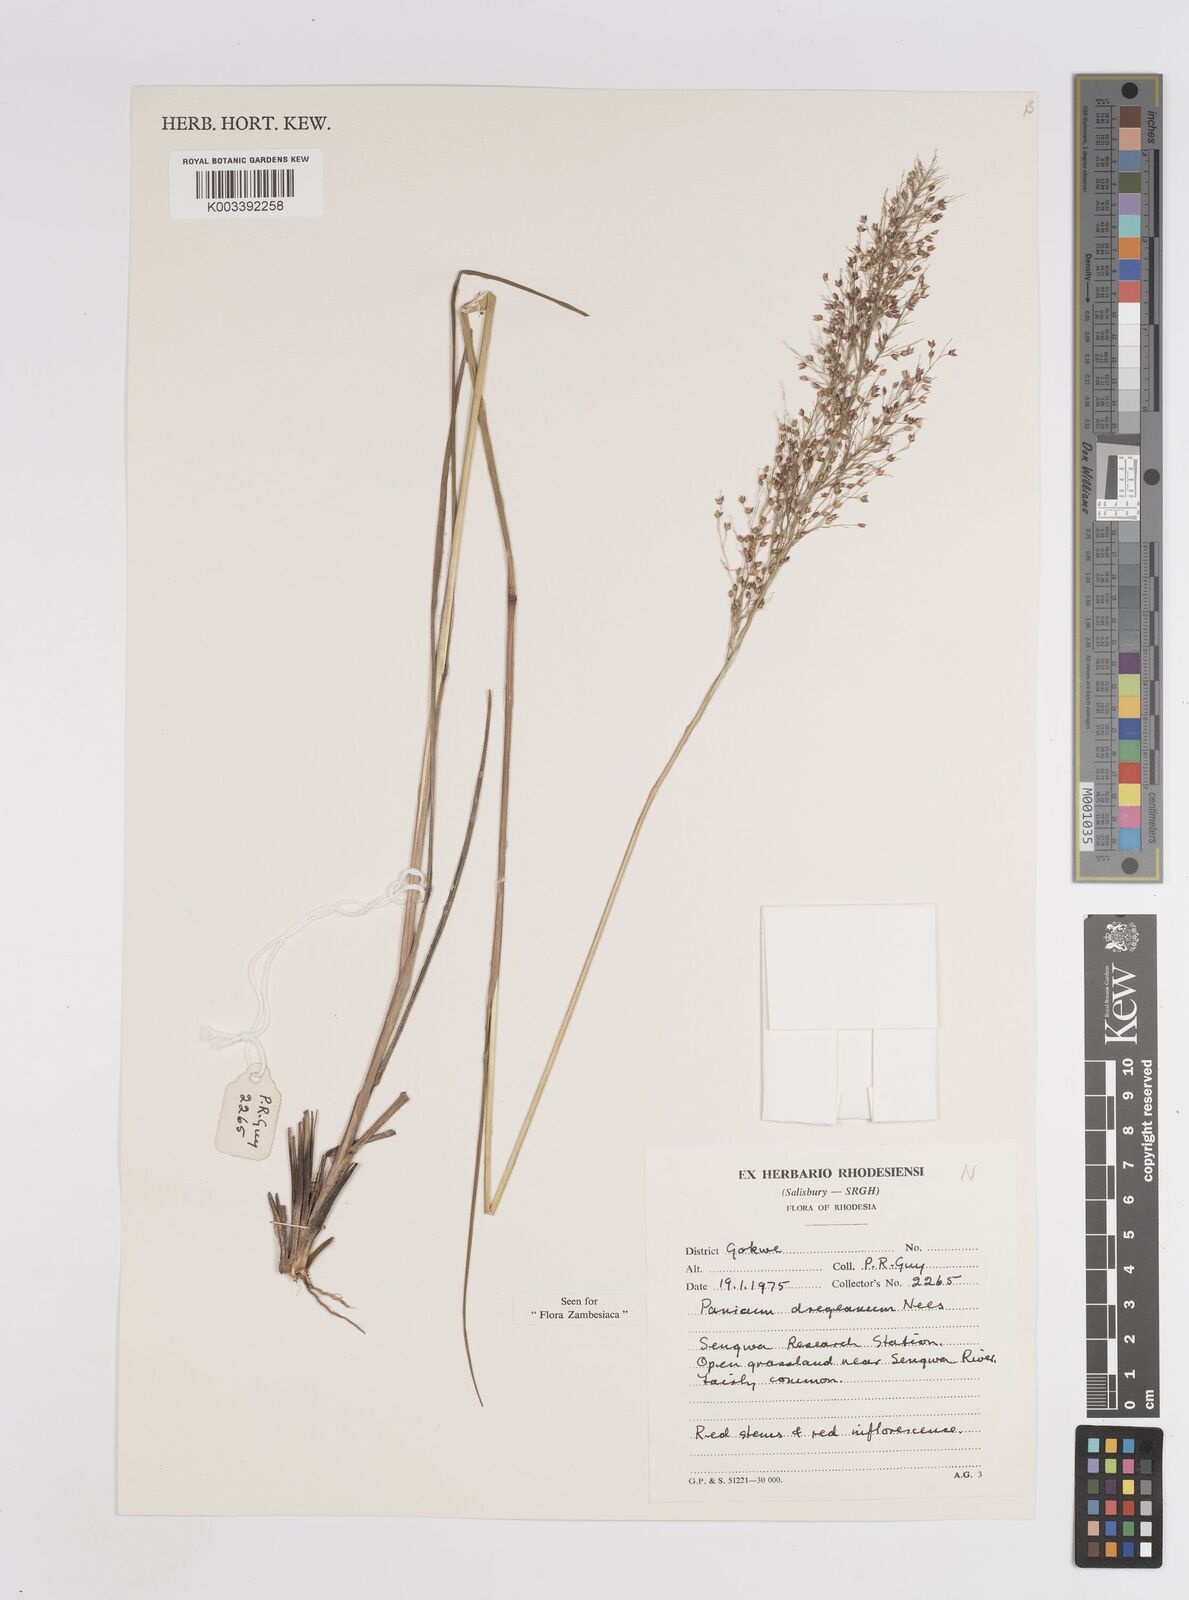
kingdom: Plantae
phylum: Tracheophyta
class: Liliopsida
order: Poales
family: Poaceae
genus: Panicum
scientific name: Panicum dregeanum
